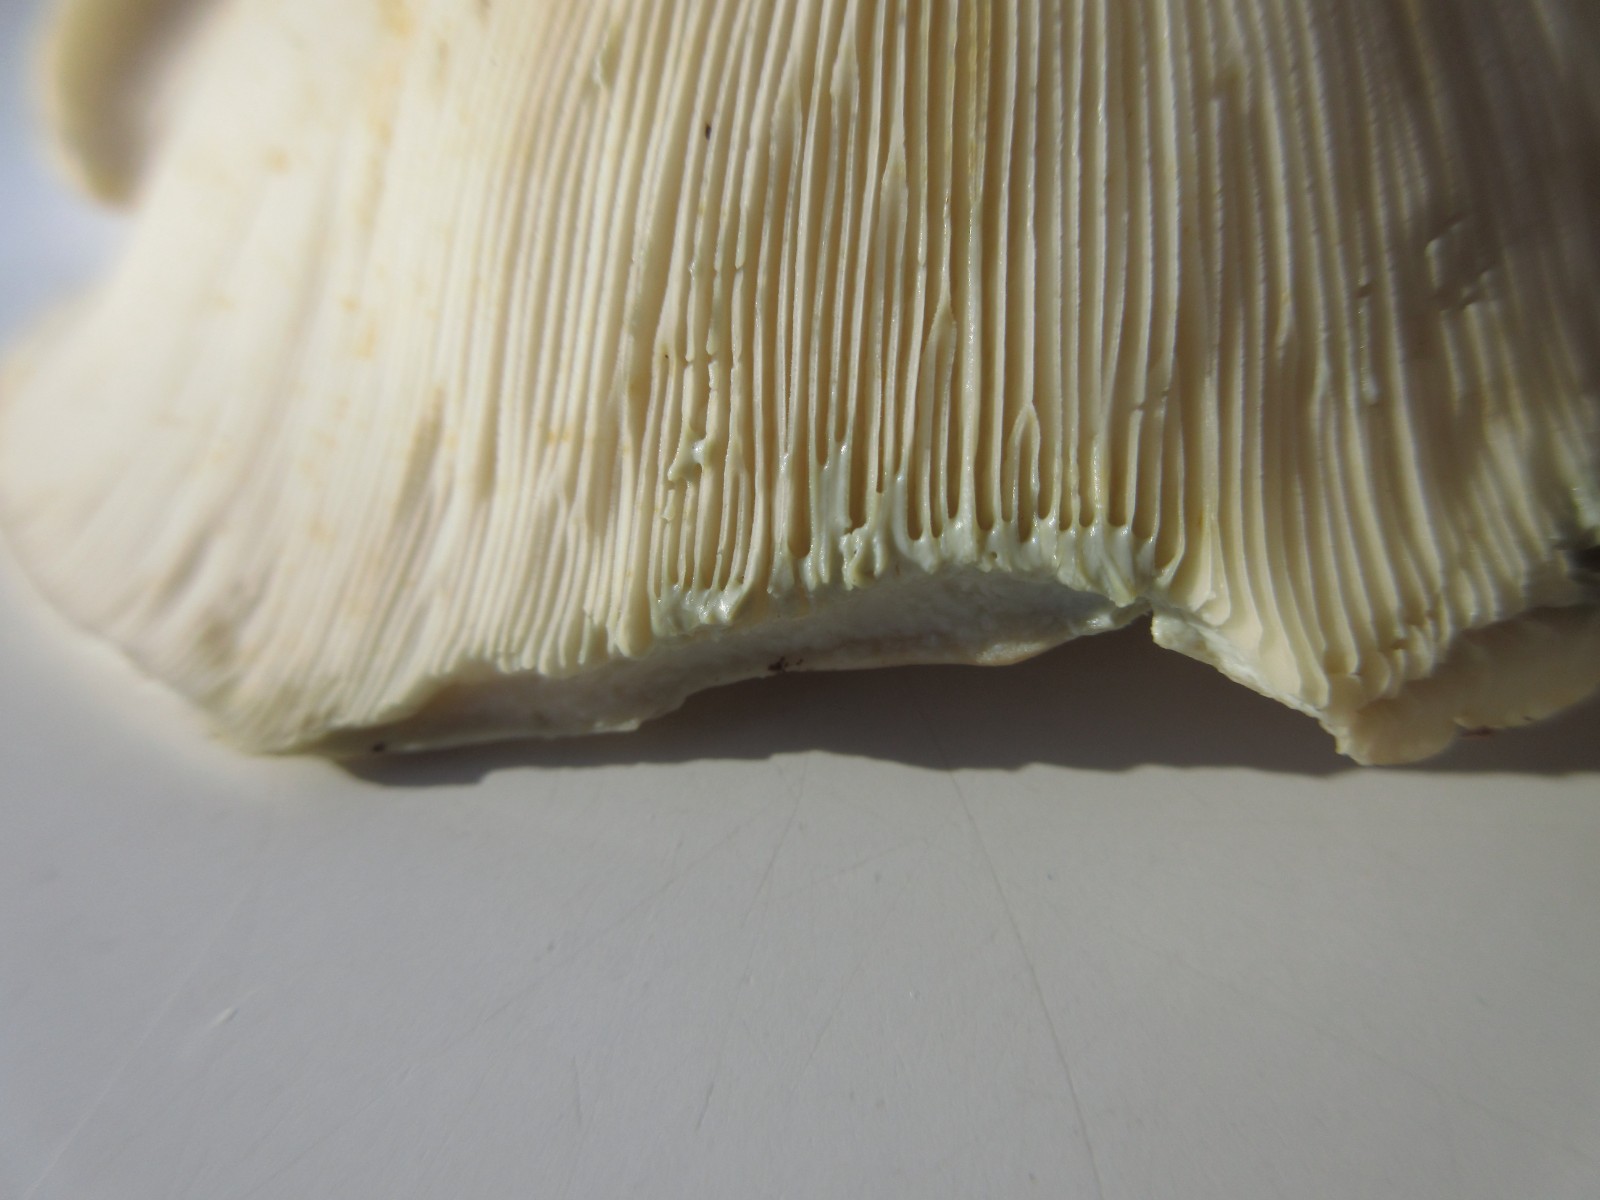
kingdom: Fungi
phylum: Basidiomycota
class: Agaricomycetes
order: Russulales
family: Russulaceae
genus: Lactifluus
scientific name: Lactifluus glaucescens
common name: grønplettet mælkehat
